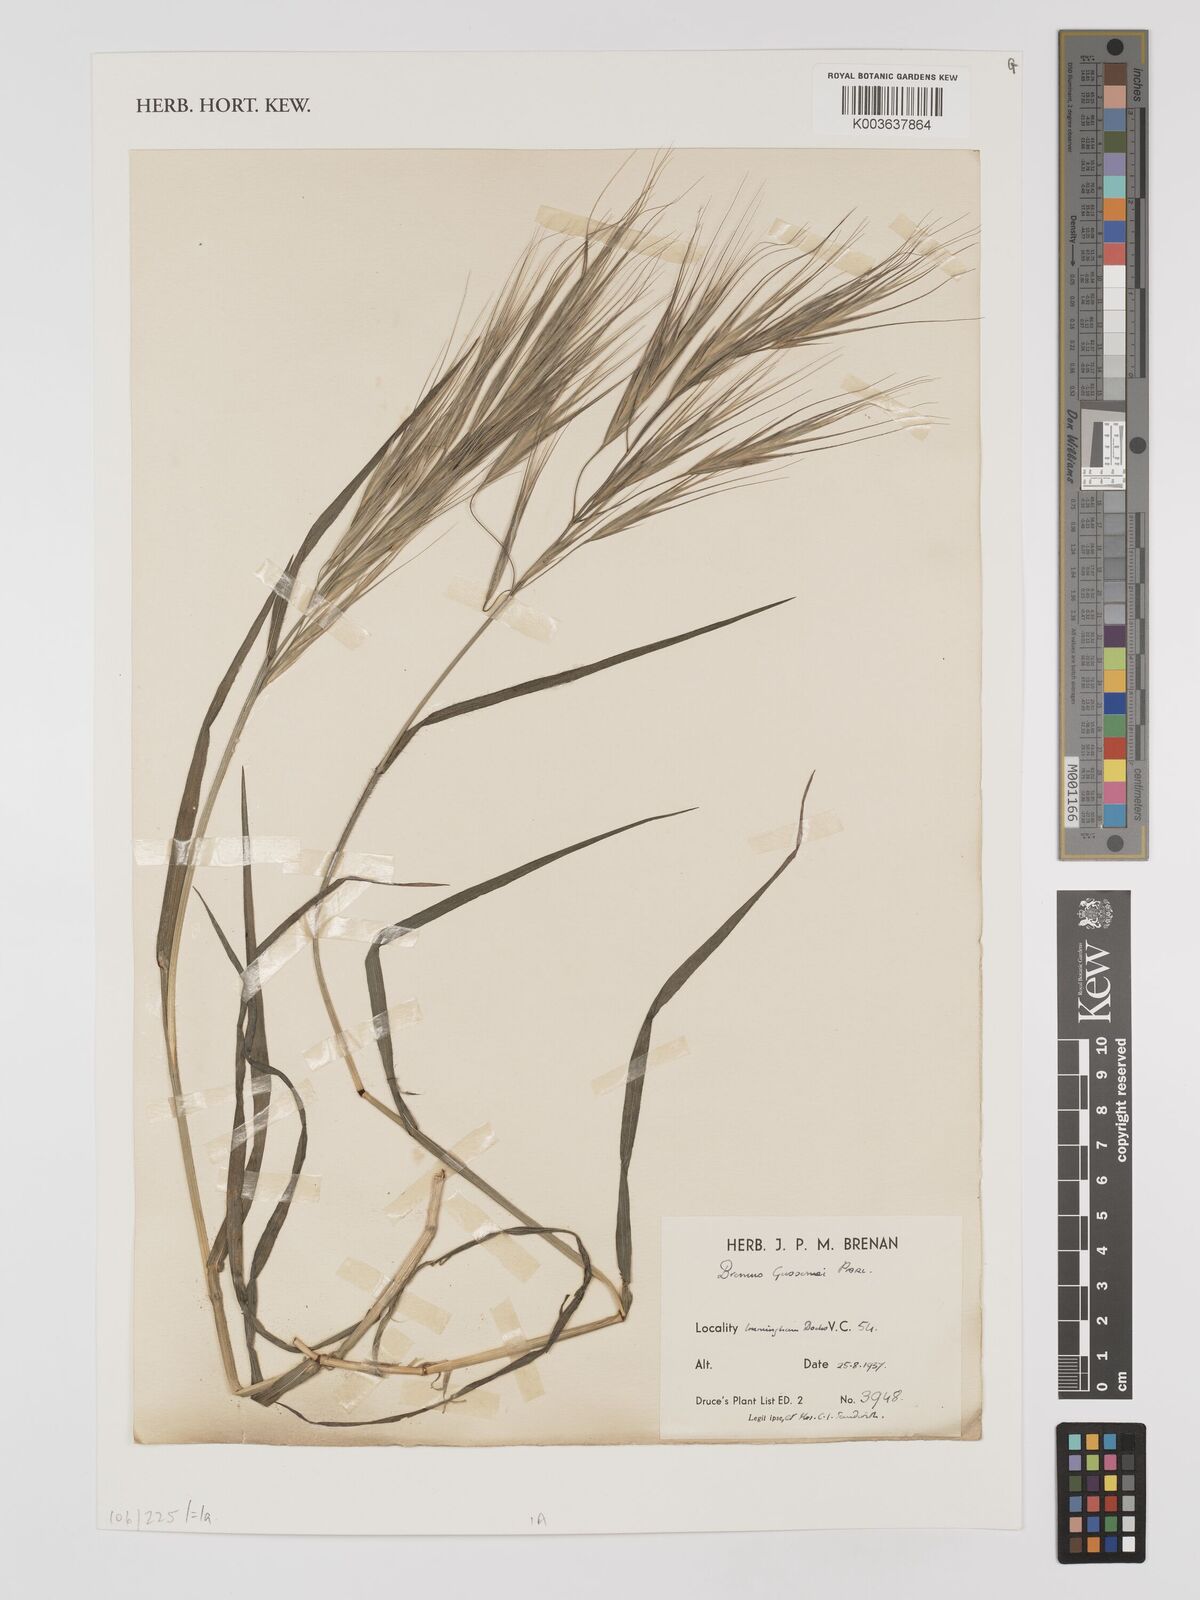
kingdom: Plantae
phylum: Tracheophyta
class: Liliopsida
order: Poales
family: Poaceae
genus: Bromus
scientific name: Bromus
